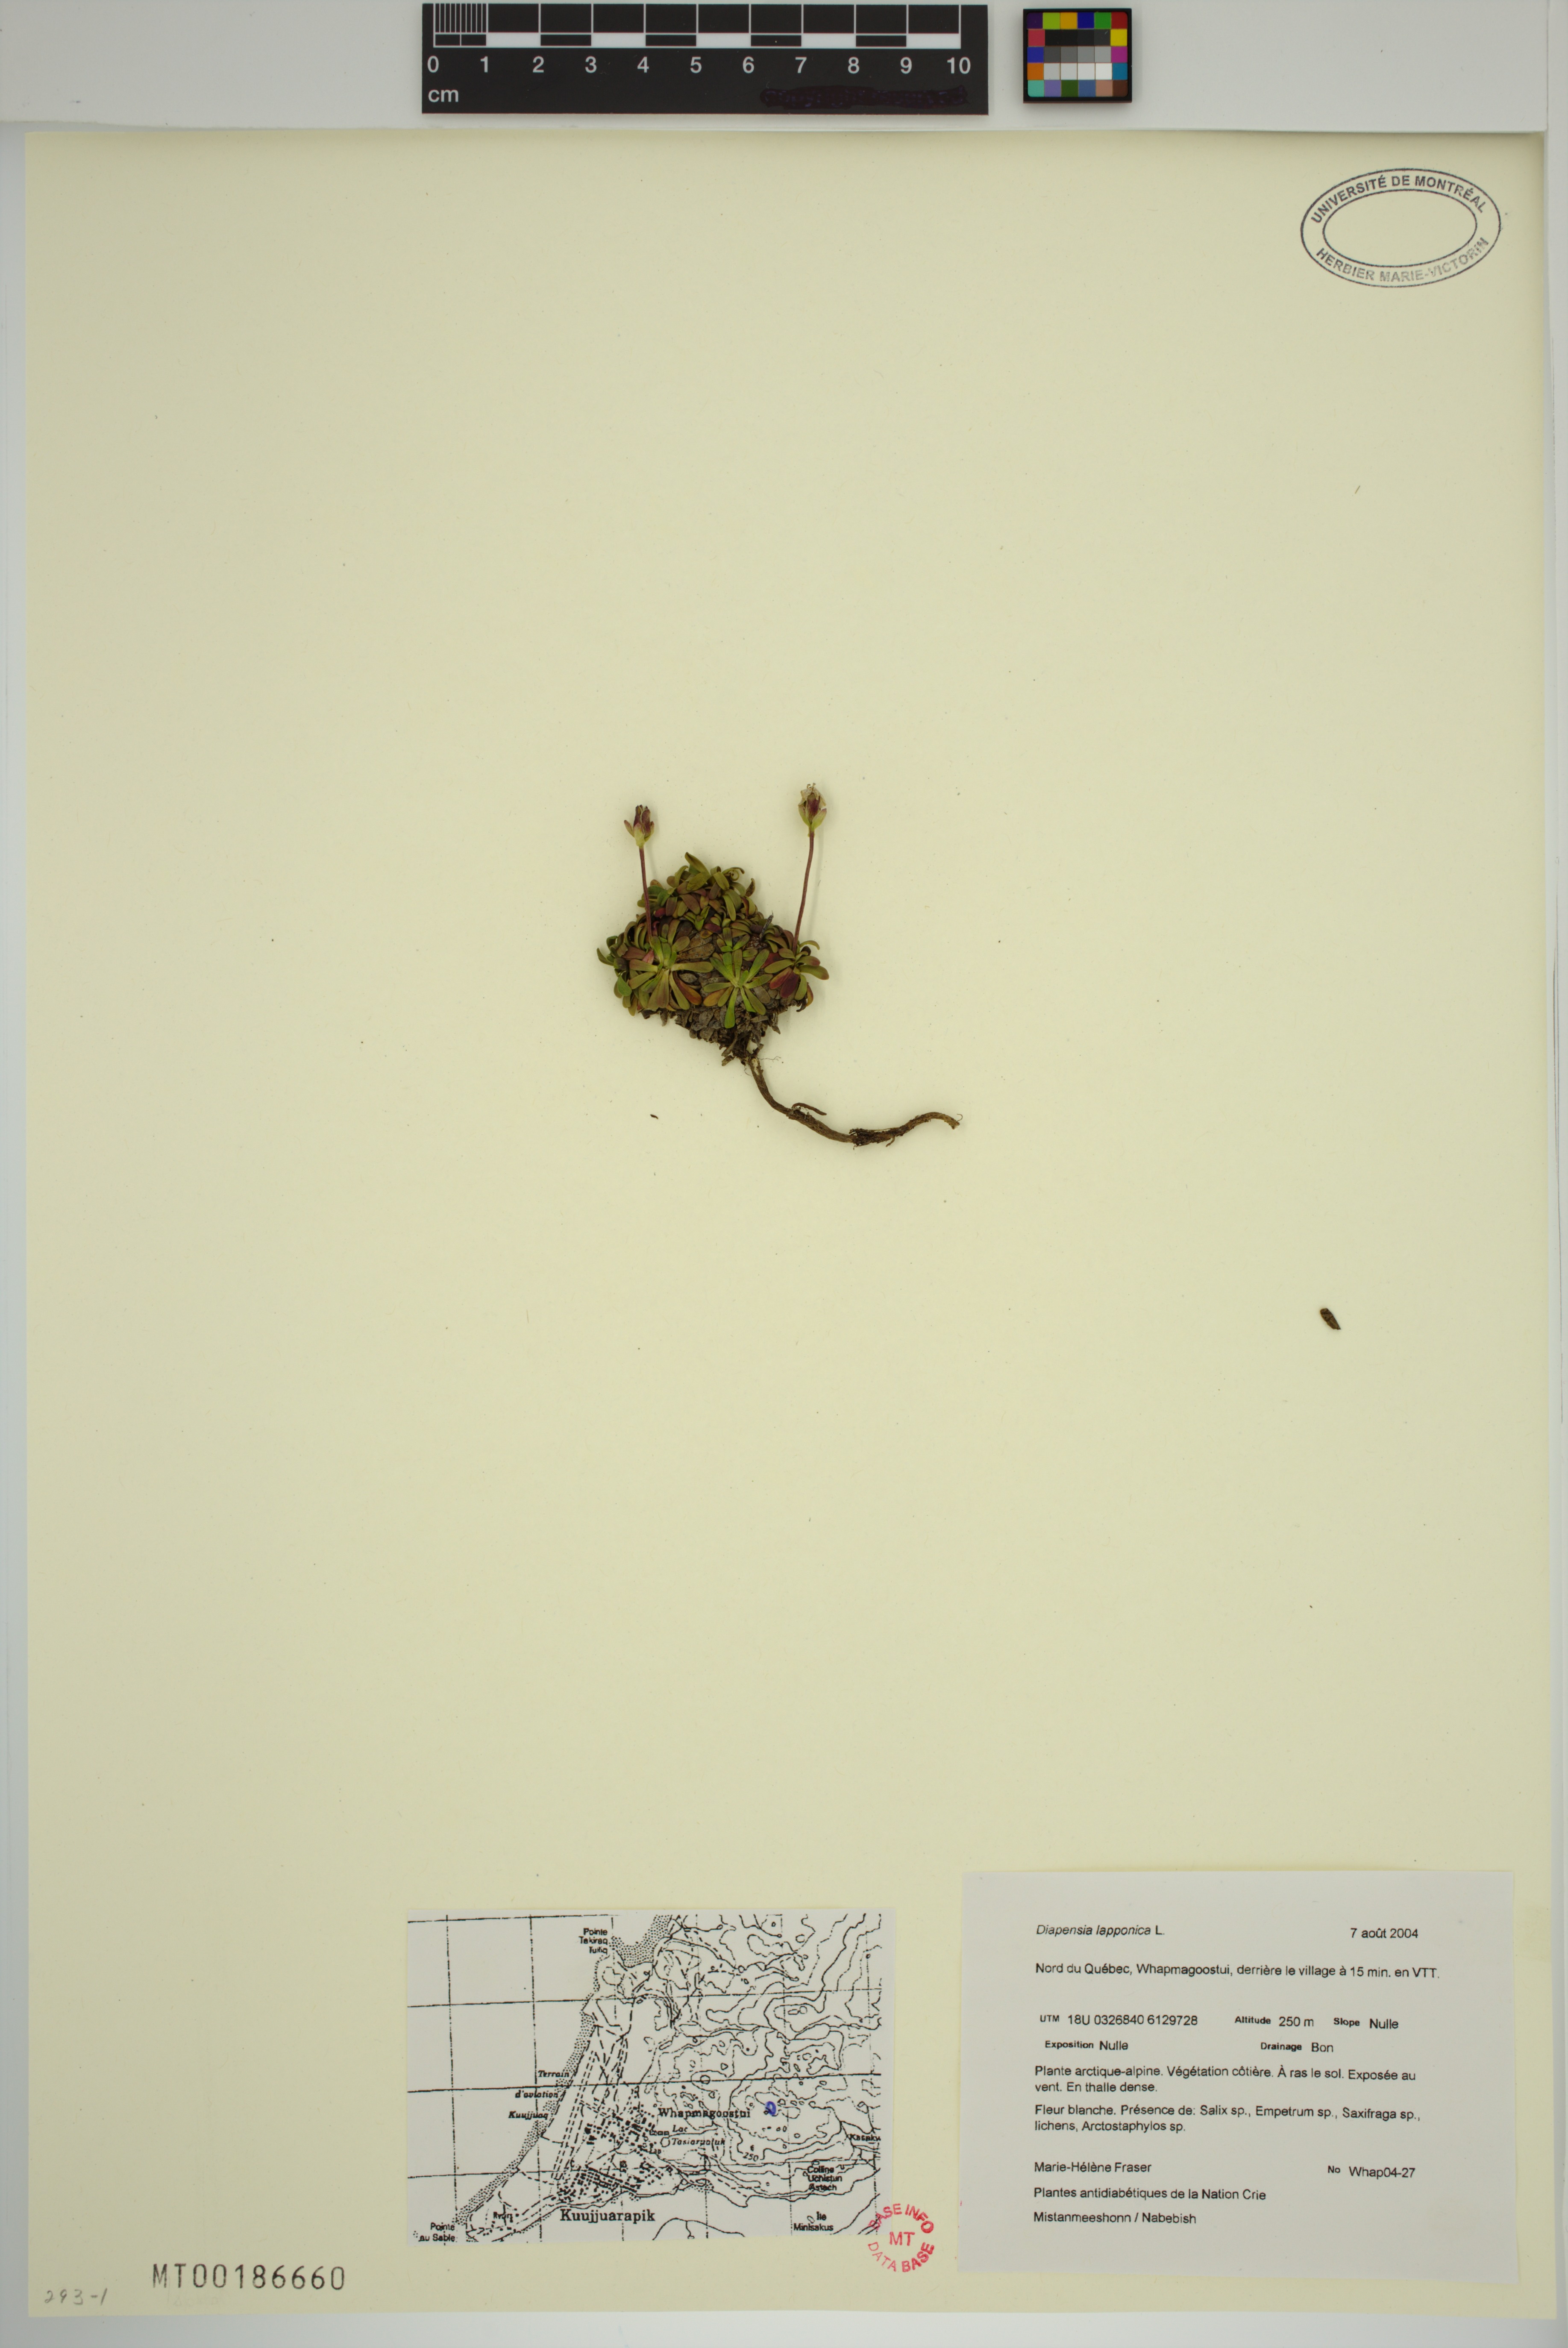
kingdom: Plantae
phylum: Tracheophyta
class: Magnoliopsida
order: Ericales
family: Diapensiaceae
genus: Diapensia
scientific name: Diapensia lapponica
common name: Diapensia
